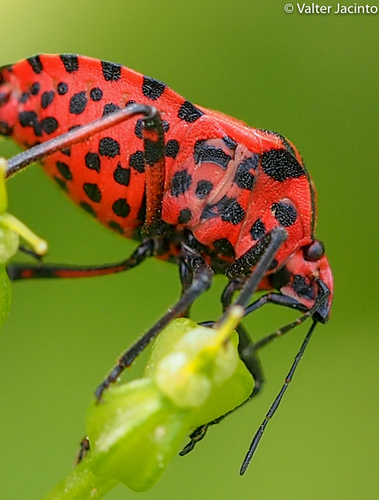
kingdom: Animalia
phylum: Arthropoda
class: Insecta
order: Hemiptera
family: Pentatomidae
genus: Graphosoma
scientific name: Graphosoma italicum
